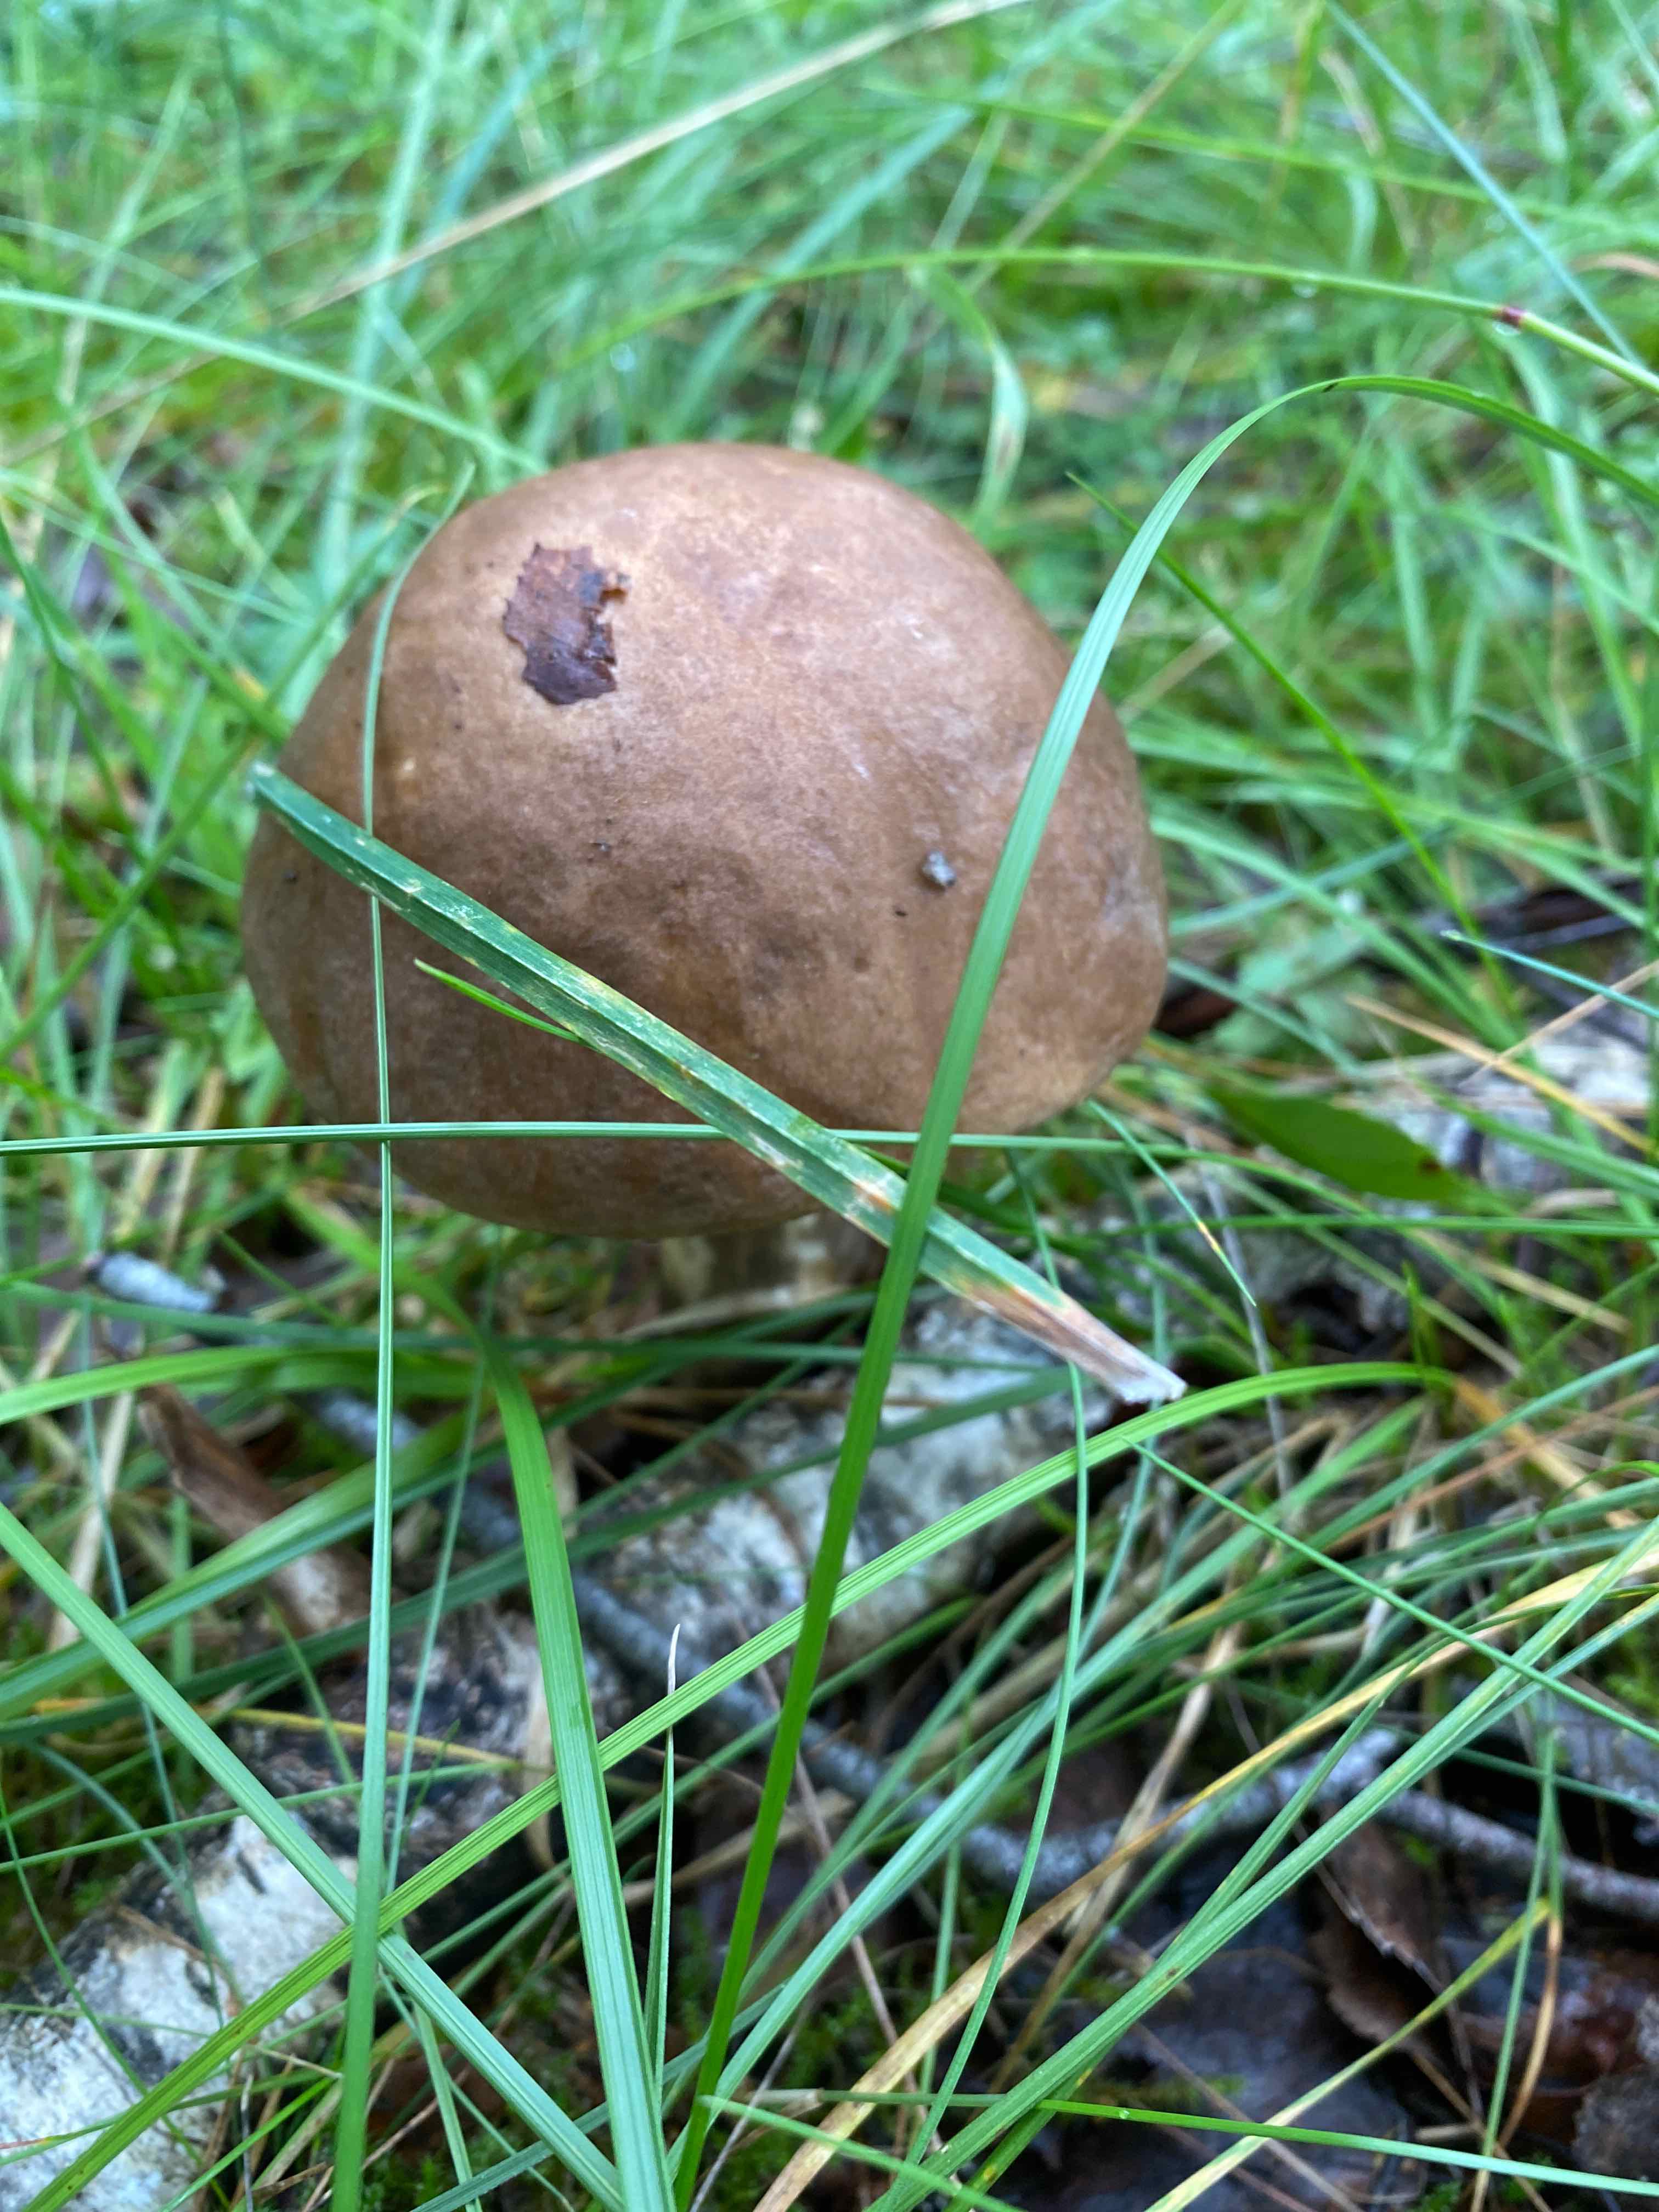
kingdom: Fungi
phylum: Basidiomycota
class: Agaricomycetes
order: Boletales
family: Boletaceae
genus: Leccinum
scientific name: Leccinum scabrum
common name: brun skælrørhat
